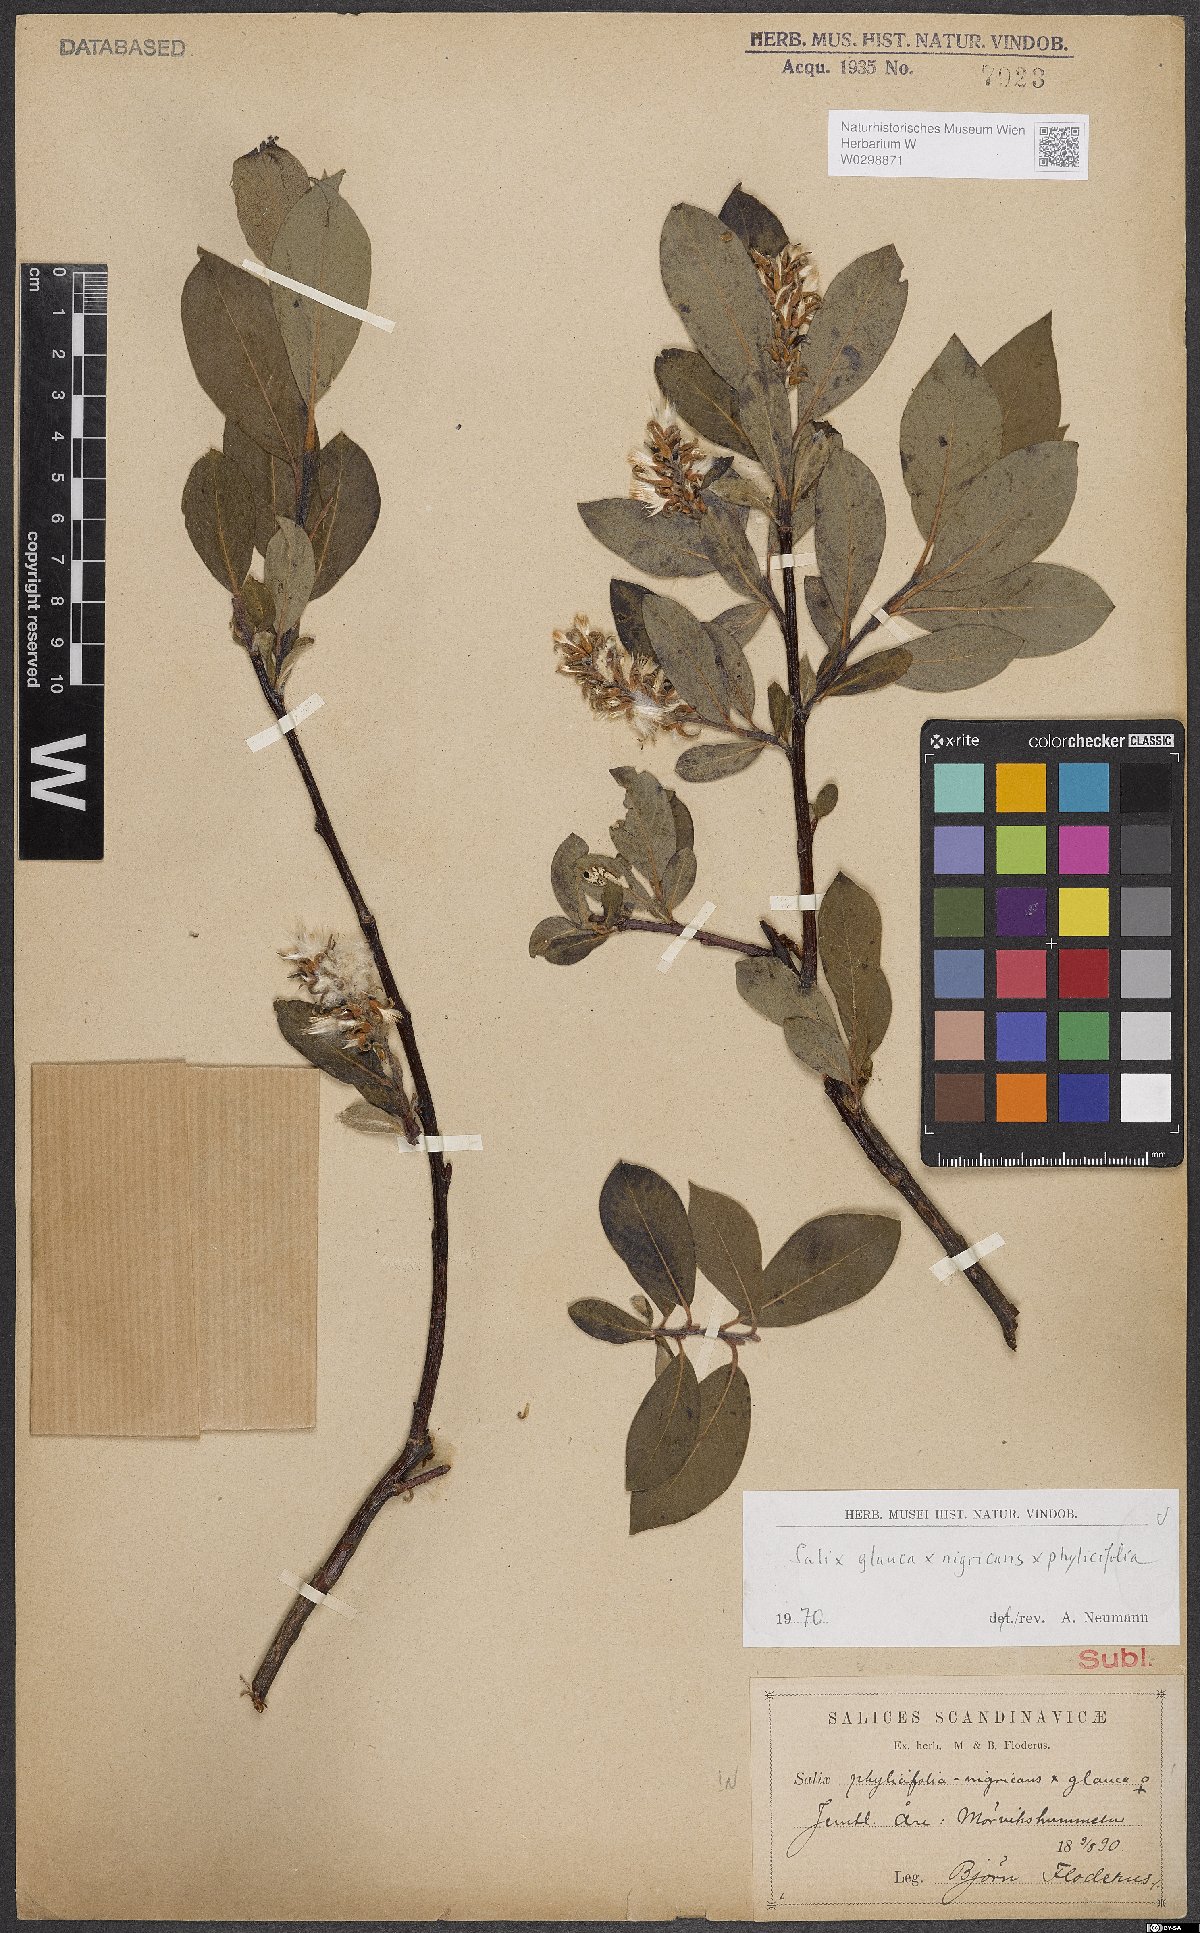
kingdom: Plantae
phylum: Tracheophyta
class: Magnoliopsida
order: Malpighiales
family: Salicaceae
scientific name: Salicaceae
